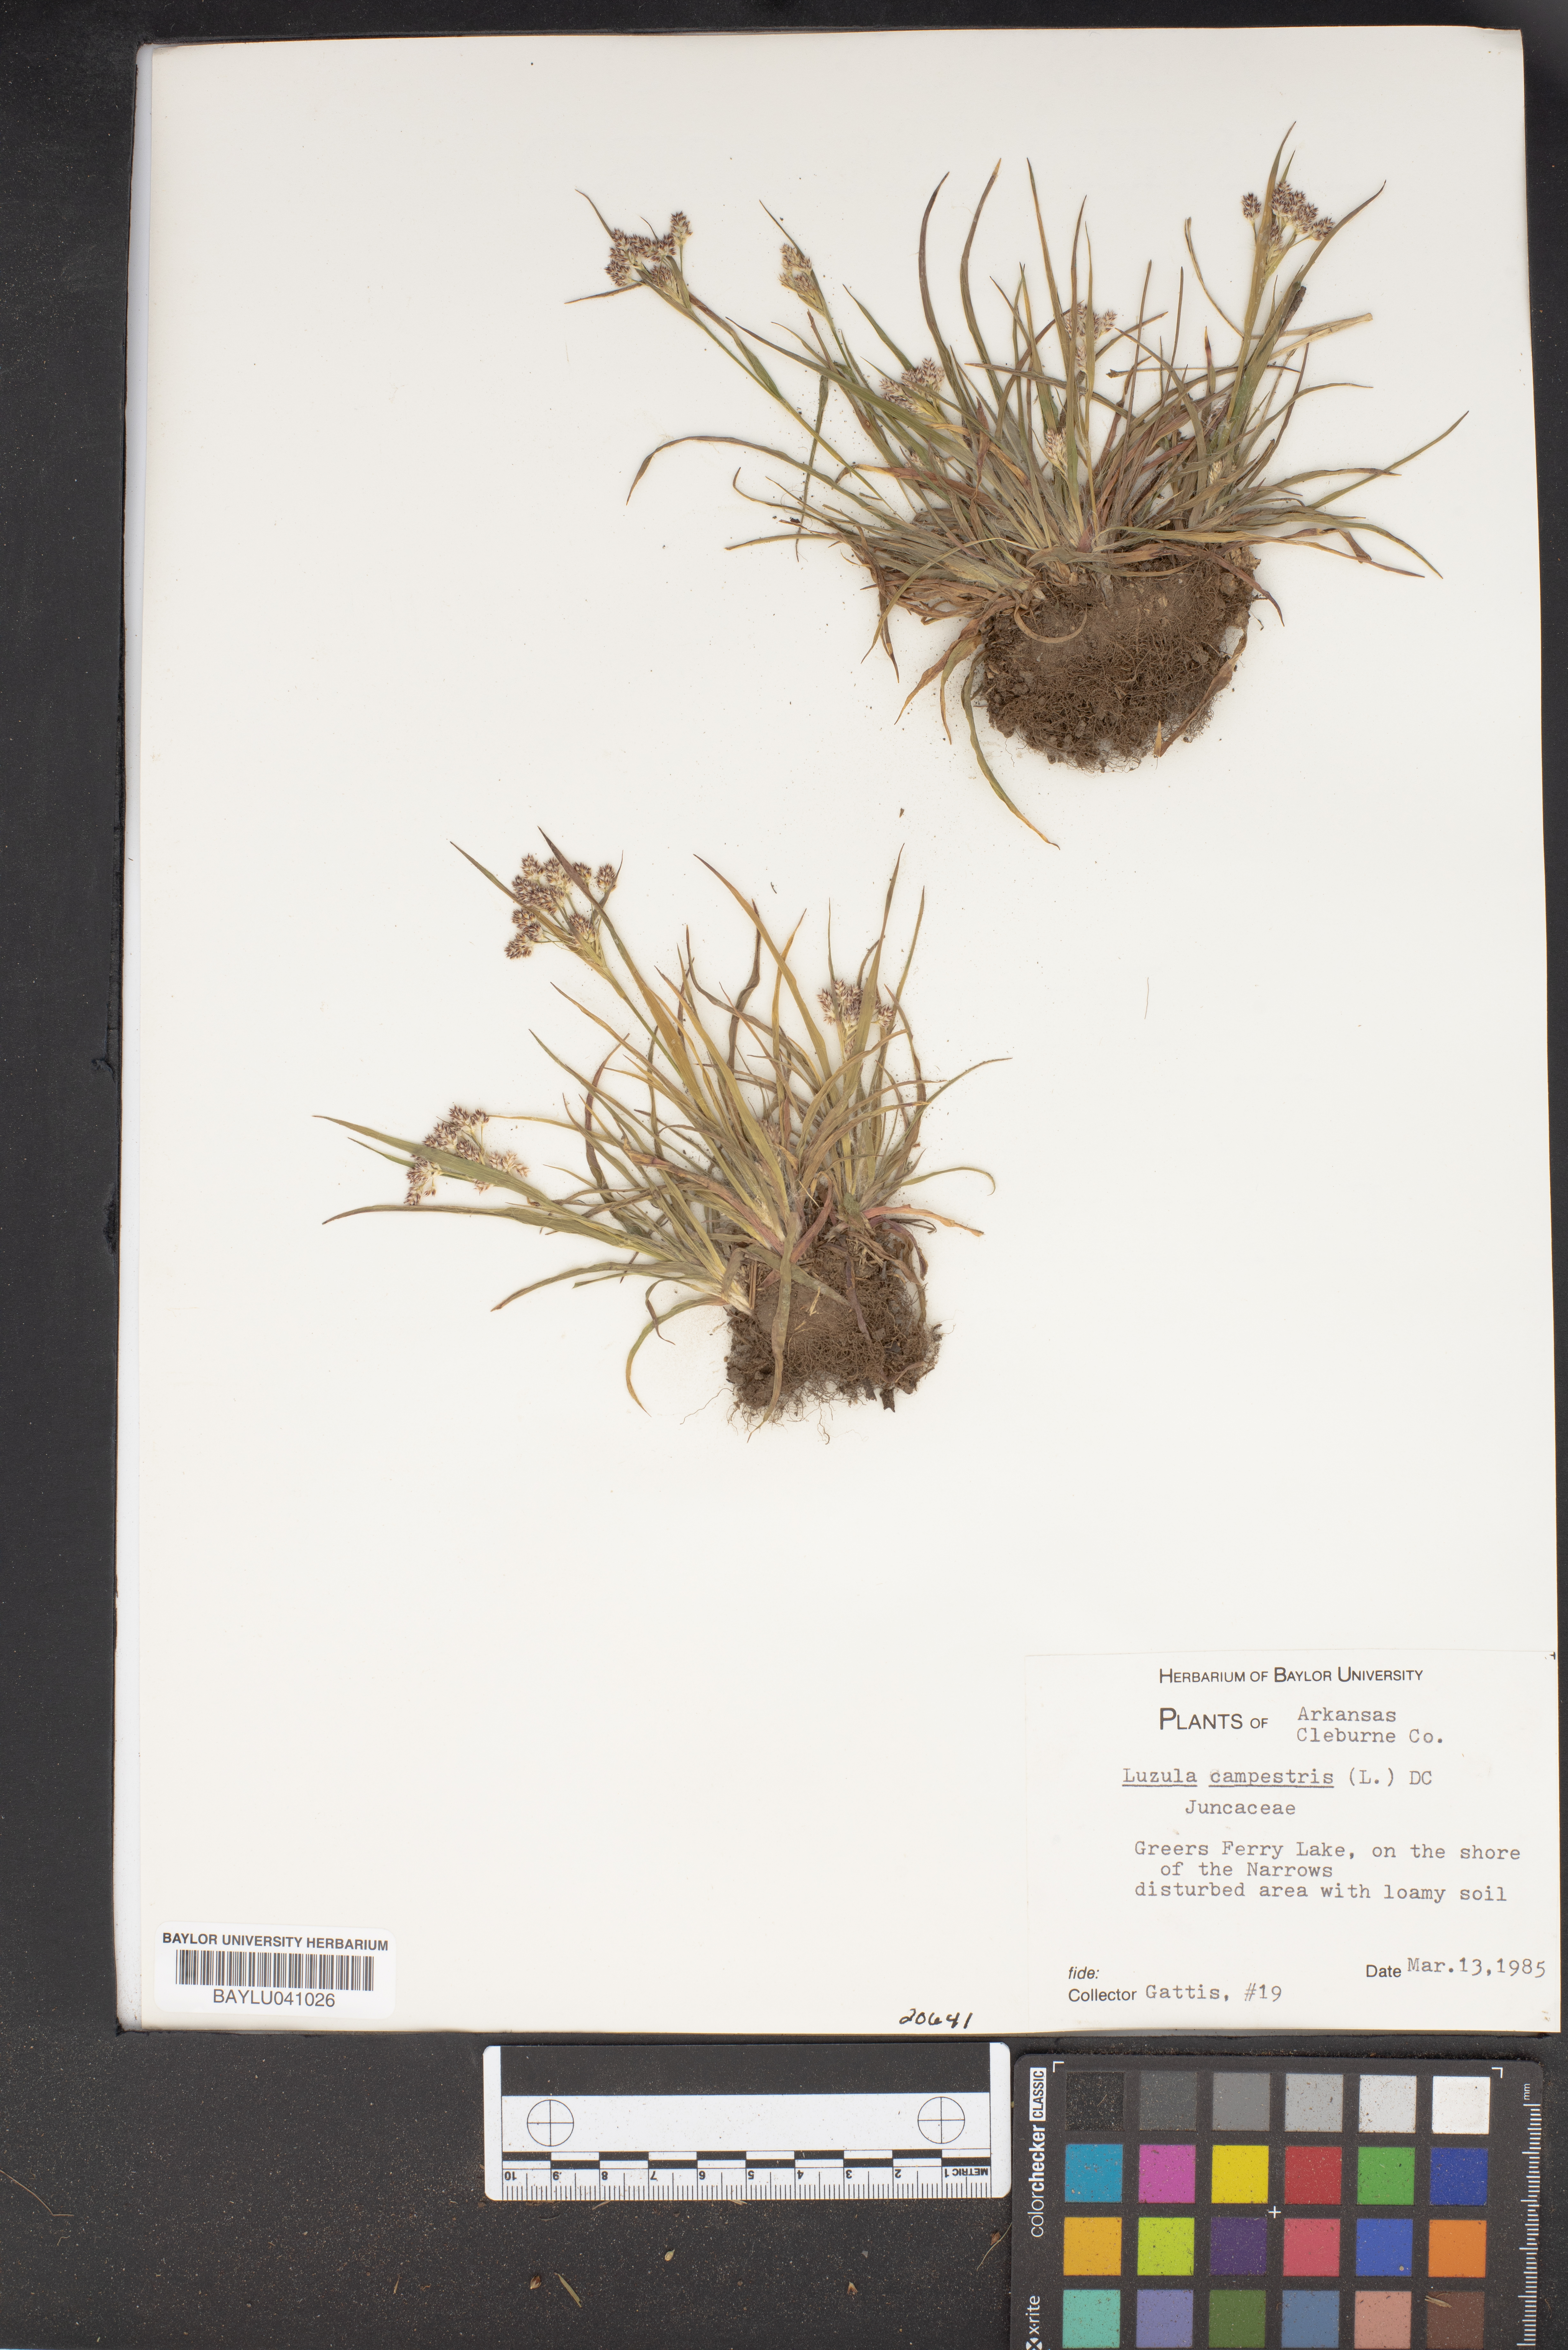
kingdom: Plantae
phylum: Tracheophyta
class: Liliopsida
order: Poales
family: Juncaceae
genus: Luzula
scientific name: Luzula campestris
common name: Field wood-rush
